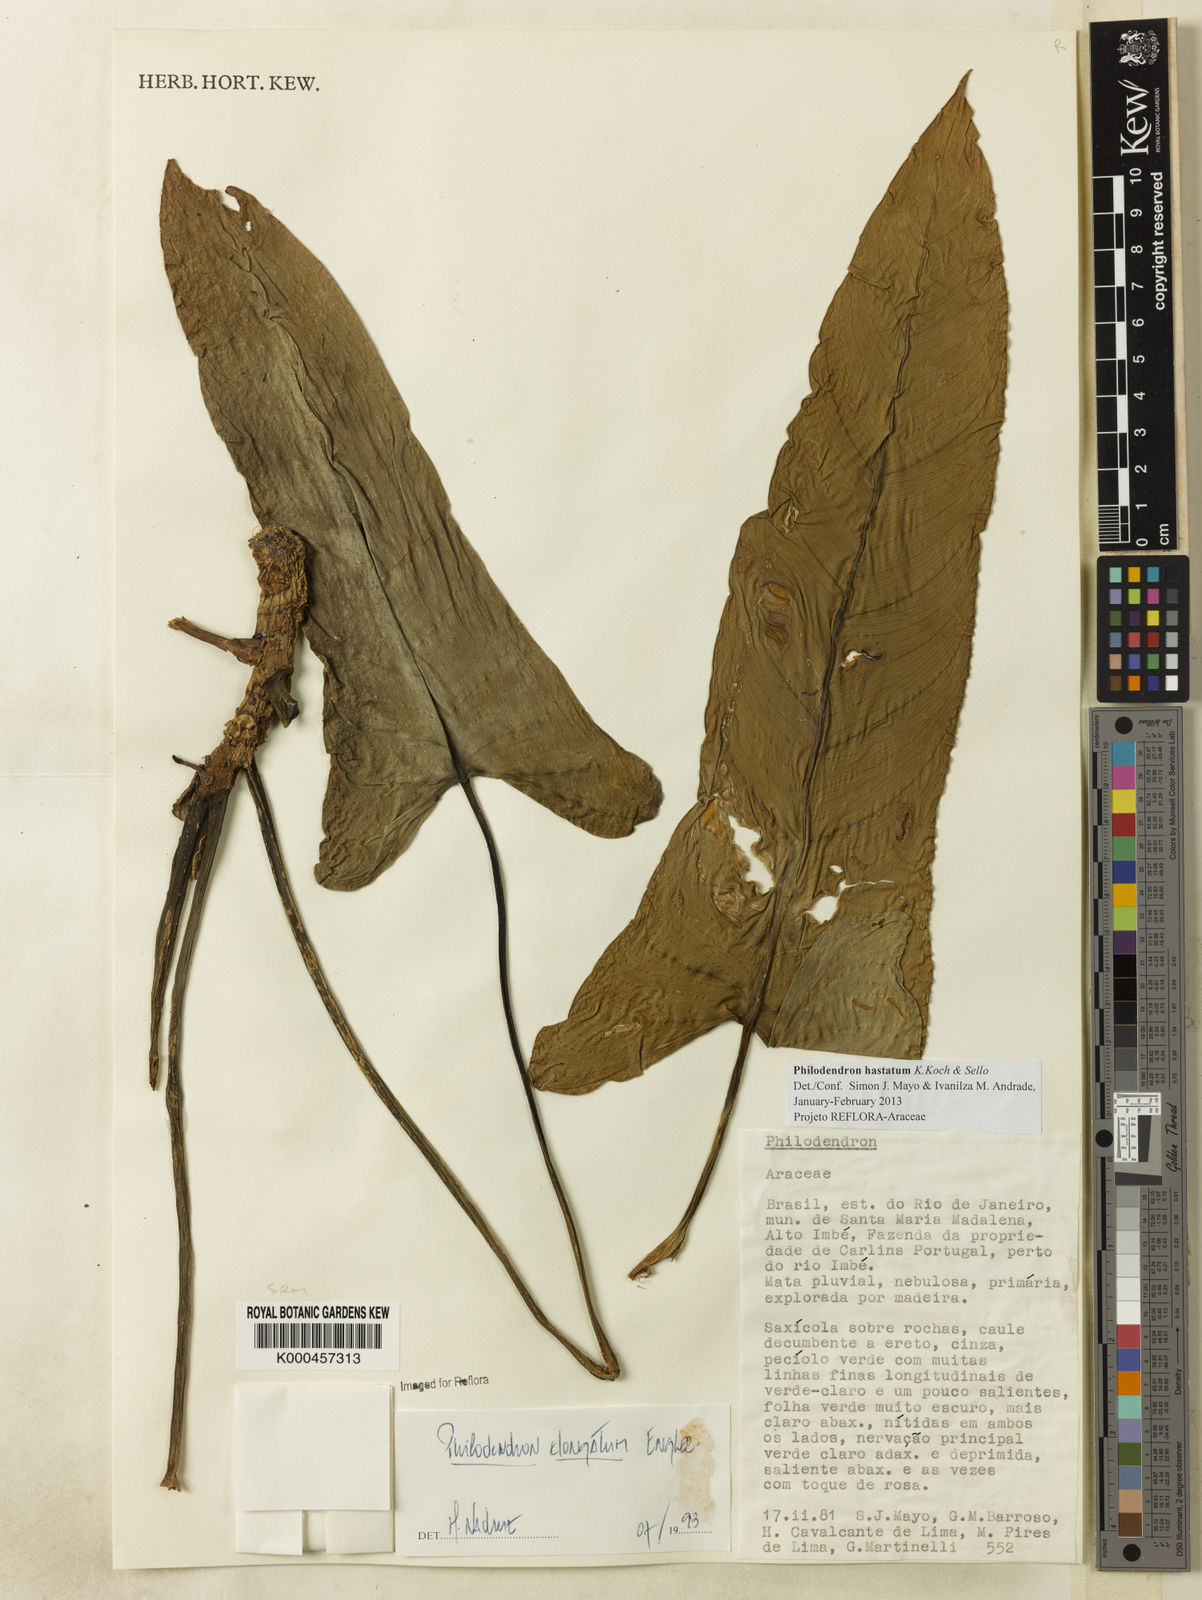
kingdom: Plantae
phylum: Tracheophyta
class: Liliopsida
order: Alismatales
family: Araceae
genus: Philodendron
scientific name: Philodendron hastatum
